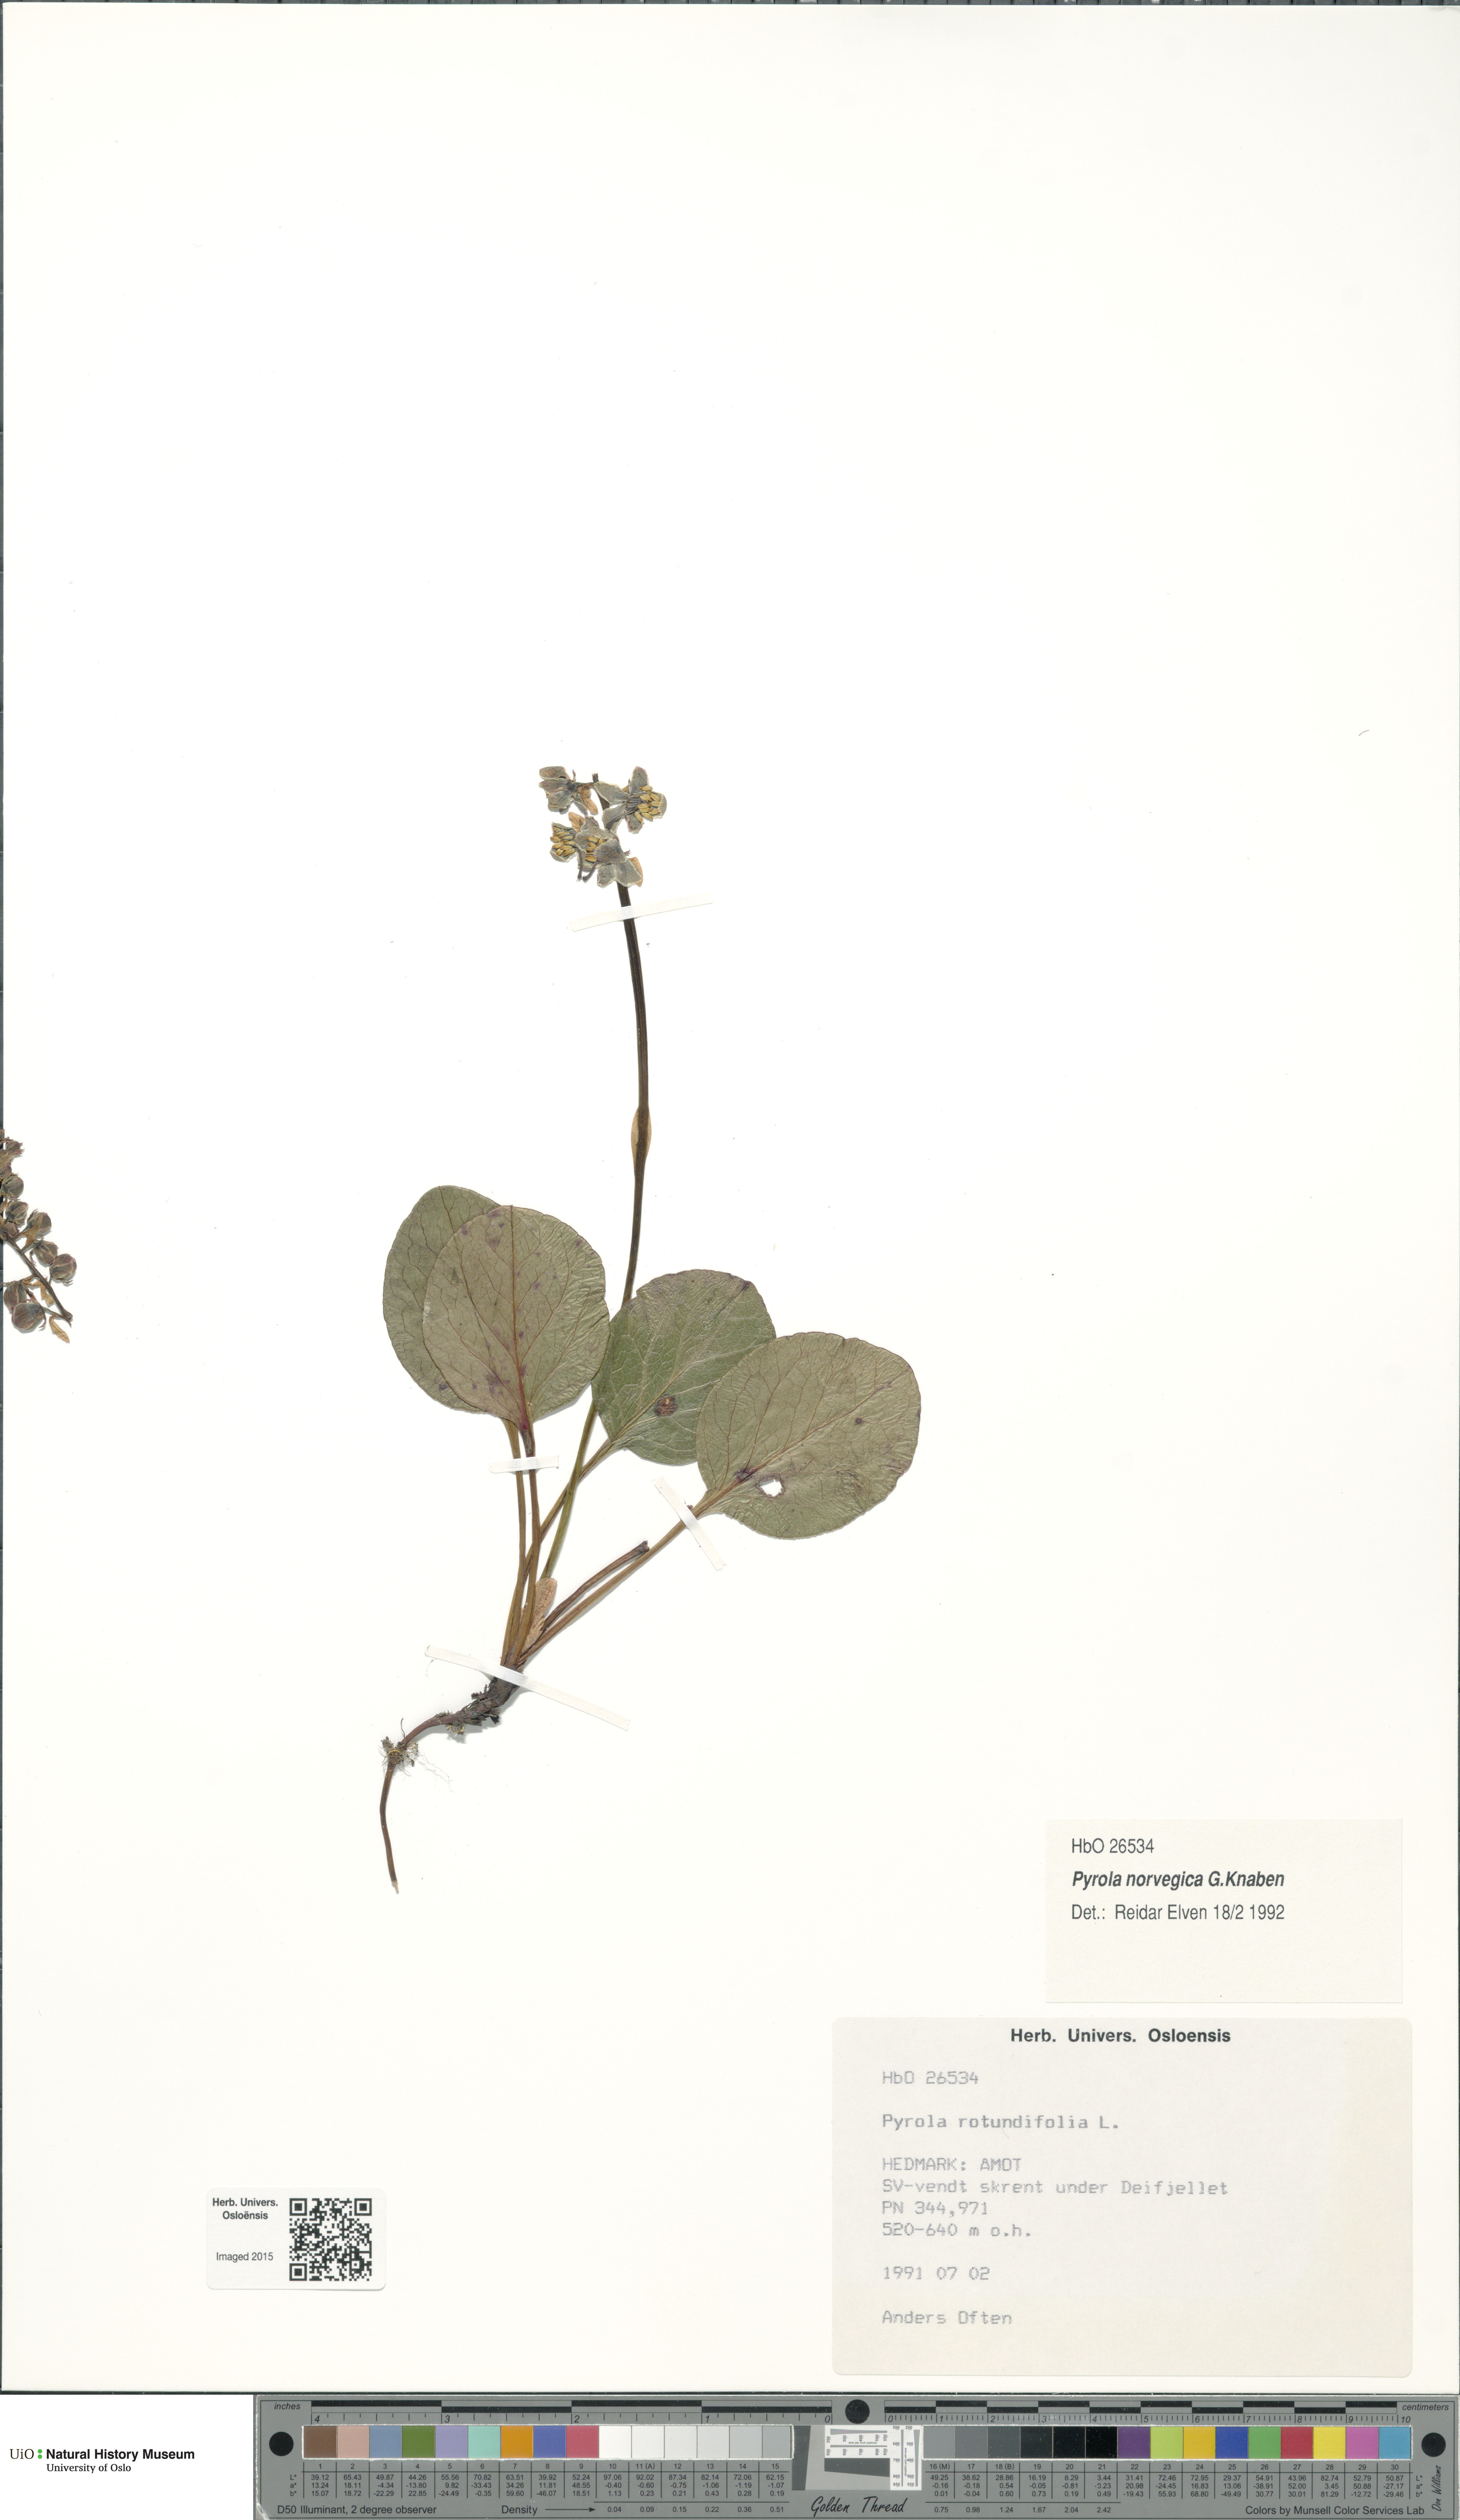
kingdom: Plantae
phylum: Tracheophyta
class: Magnoliopsida
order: Ericales
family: Ericaceae
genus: Pyrola
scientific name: Pyrola rotundifolia
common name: Round-leaved wintergreen
